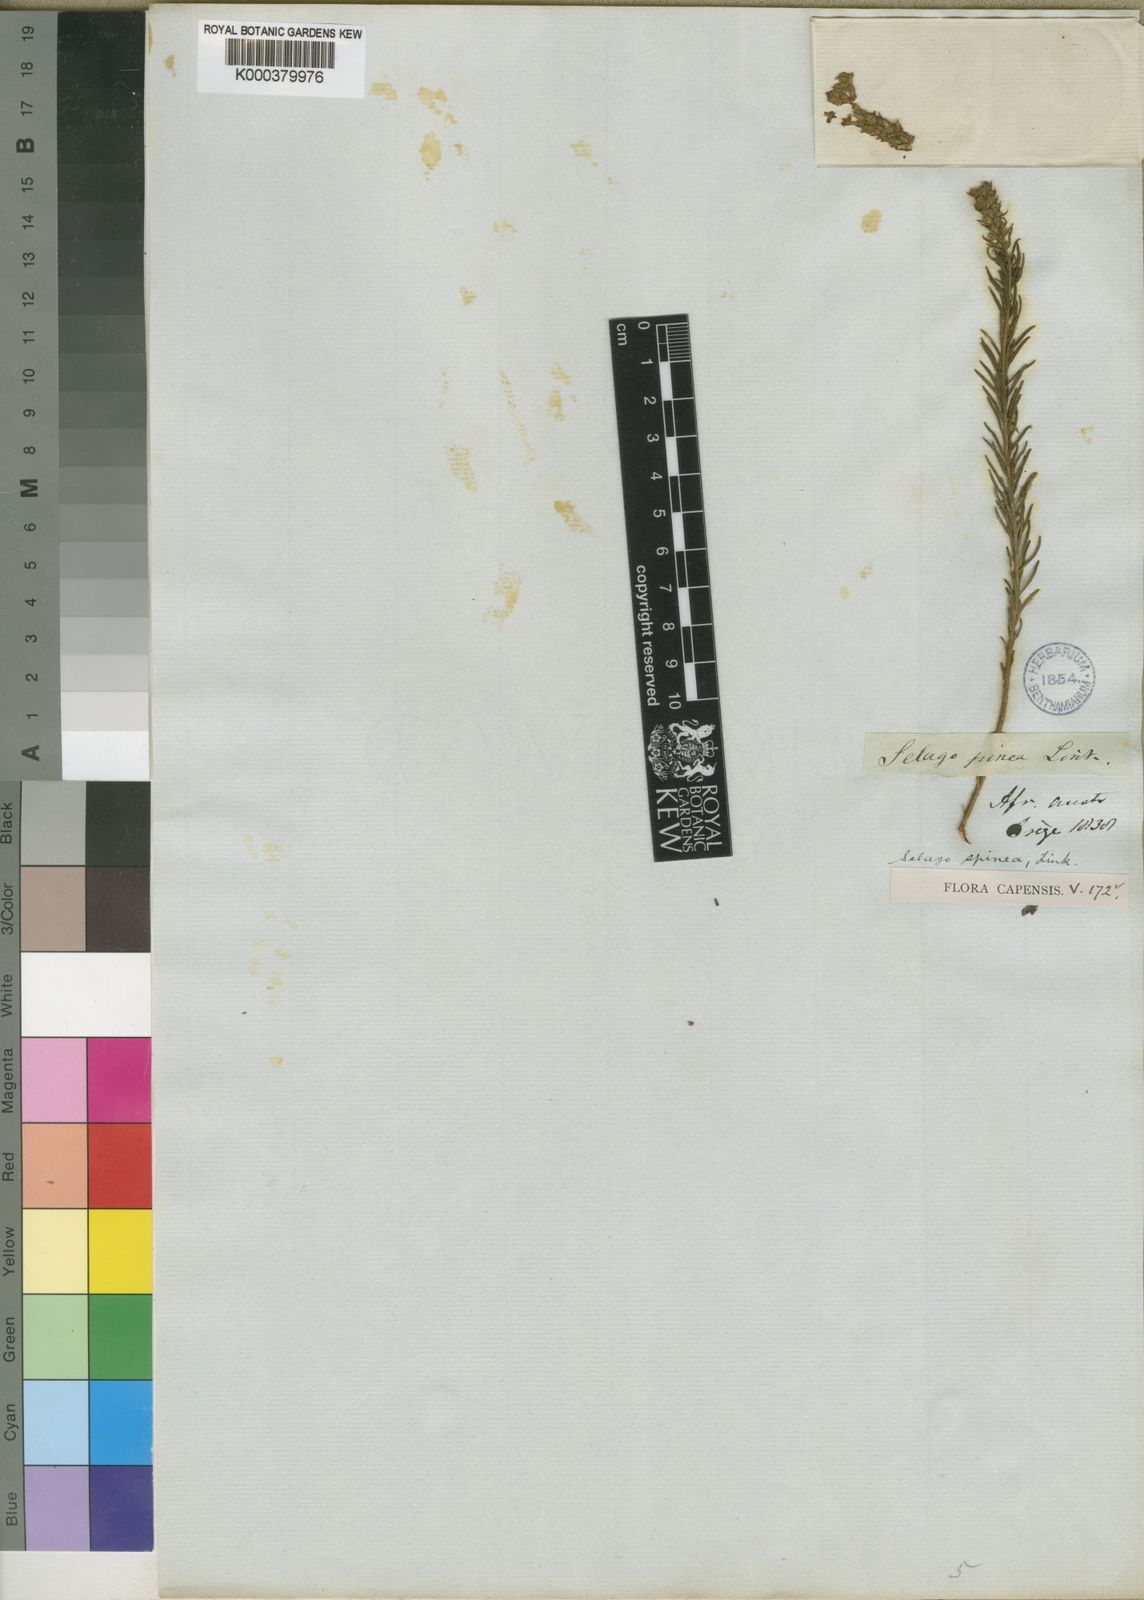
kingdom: Plantae
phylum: Tracheophyta
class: Magnoliopsida
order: Lamiales
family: Scrophulariaceae
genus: Selago
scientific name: Selago
